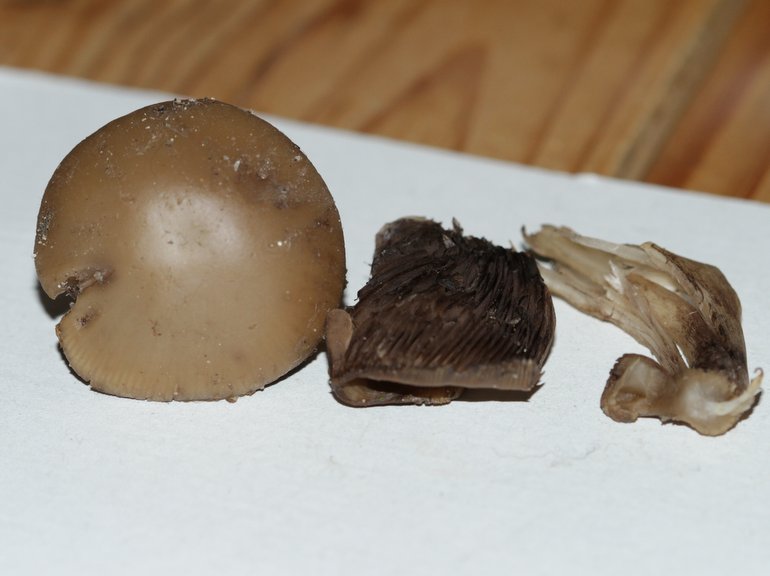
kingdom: Fungi
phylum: Basidiomycota
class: Agaricomycetes
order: Agaricales
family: Psathyrellaceae
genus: Psathyrella
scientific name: Psathyrella spadiceogrisea
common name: gråbrun mørkhat
